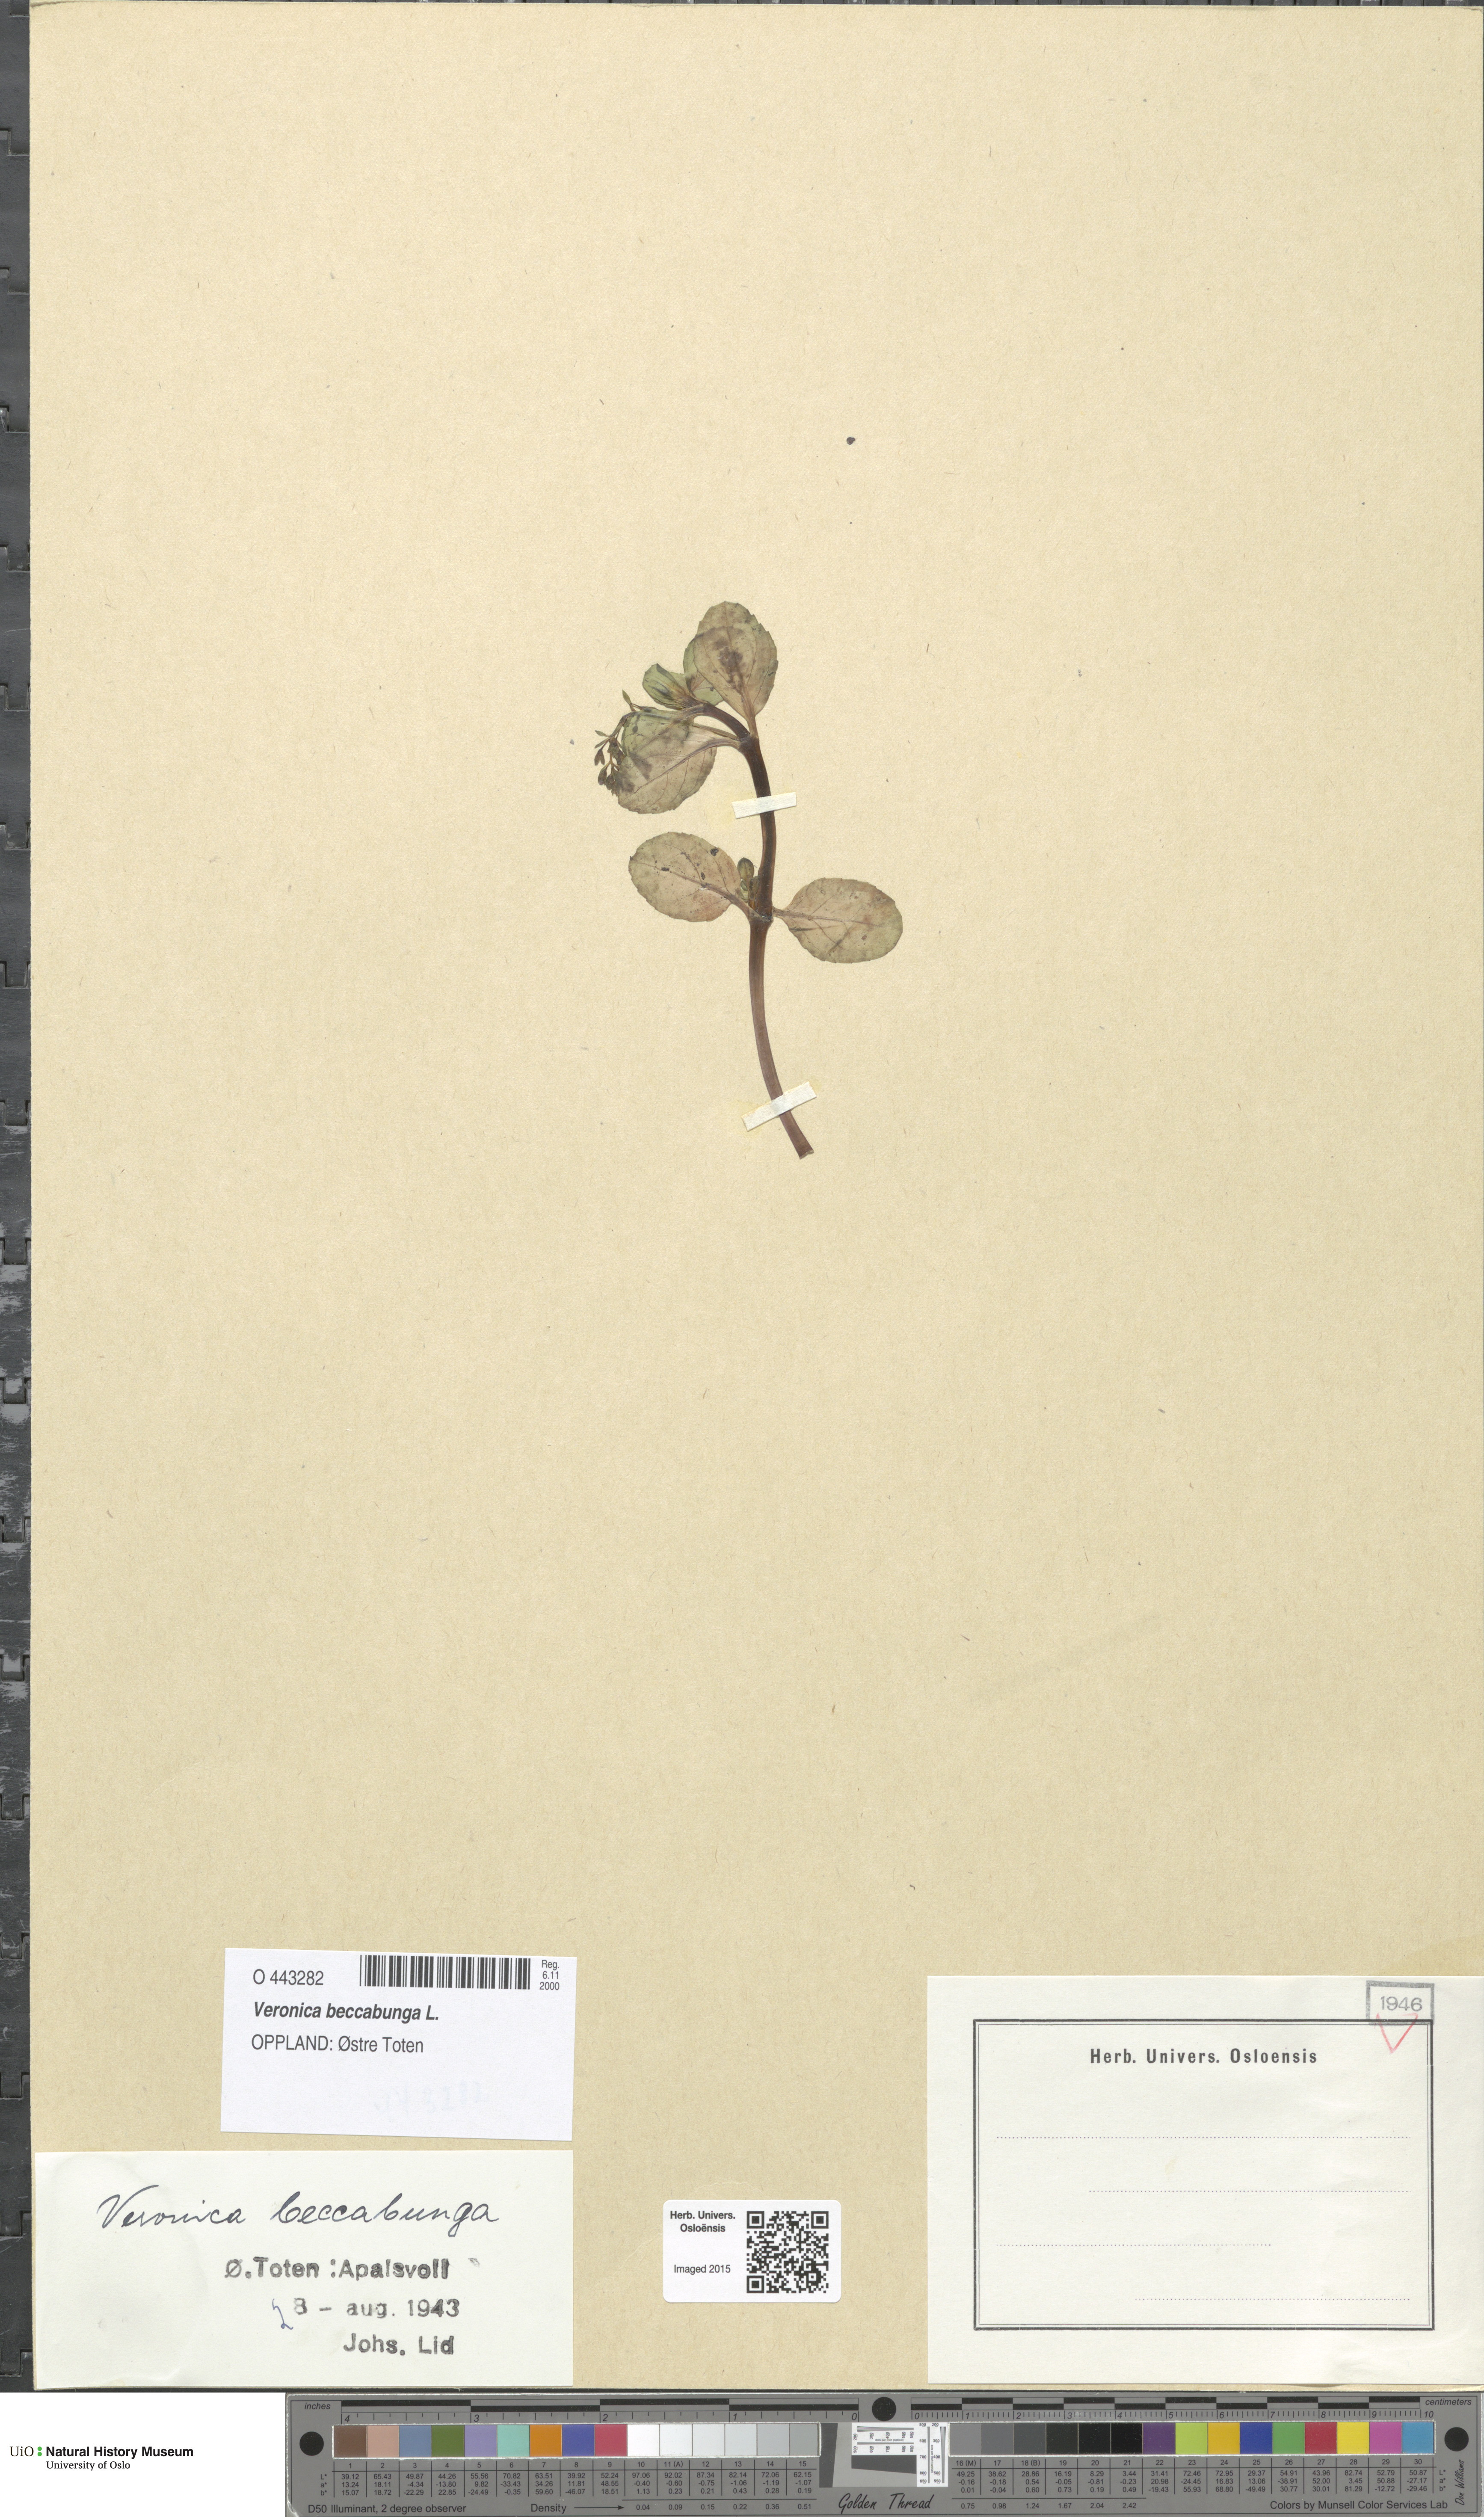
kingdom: Plantae
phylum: Tracheophyta
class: Magnoliopsida
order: Lamiales
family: Plantaginaceae
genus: Veronica
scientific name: Veronica beccabunga
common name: Brooklime
